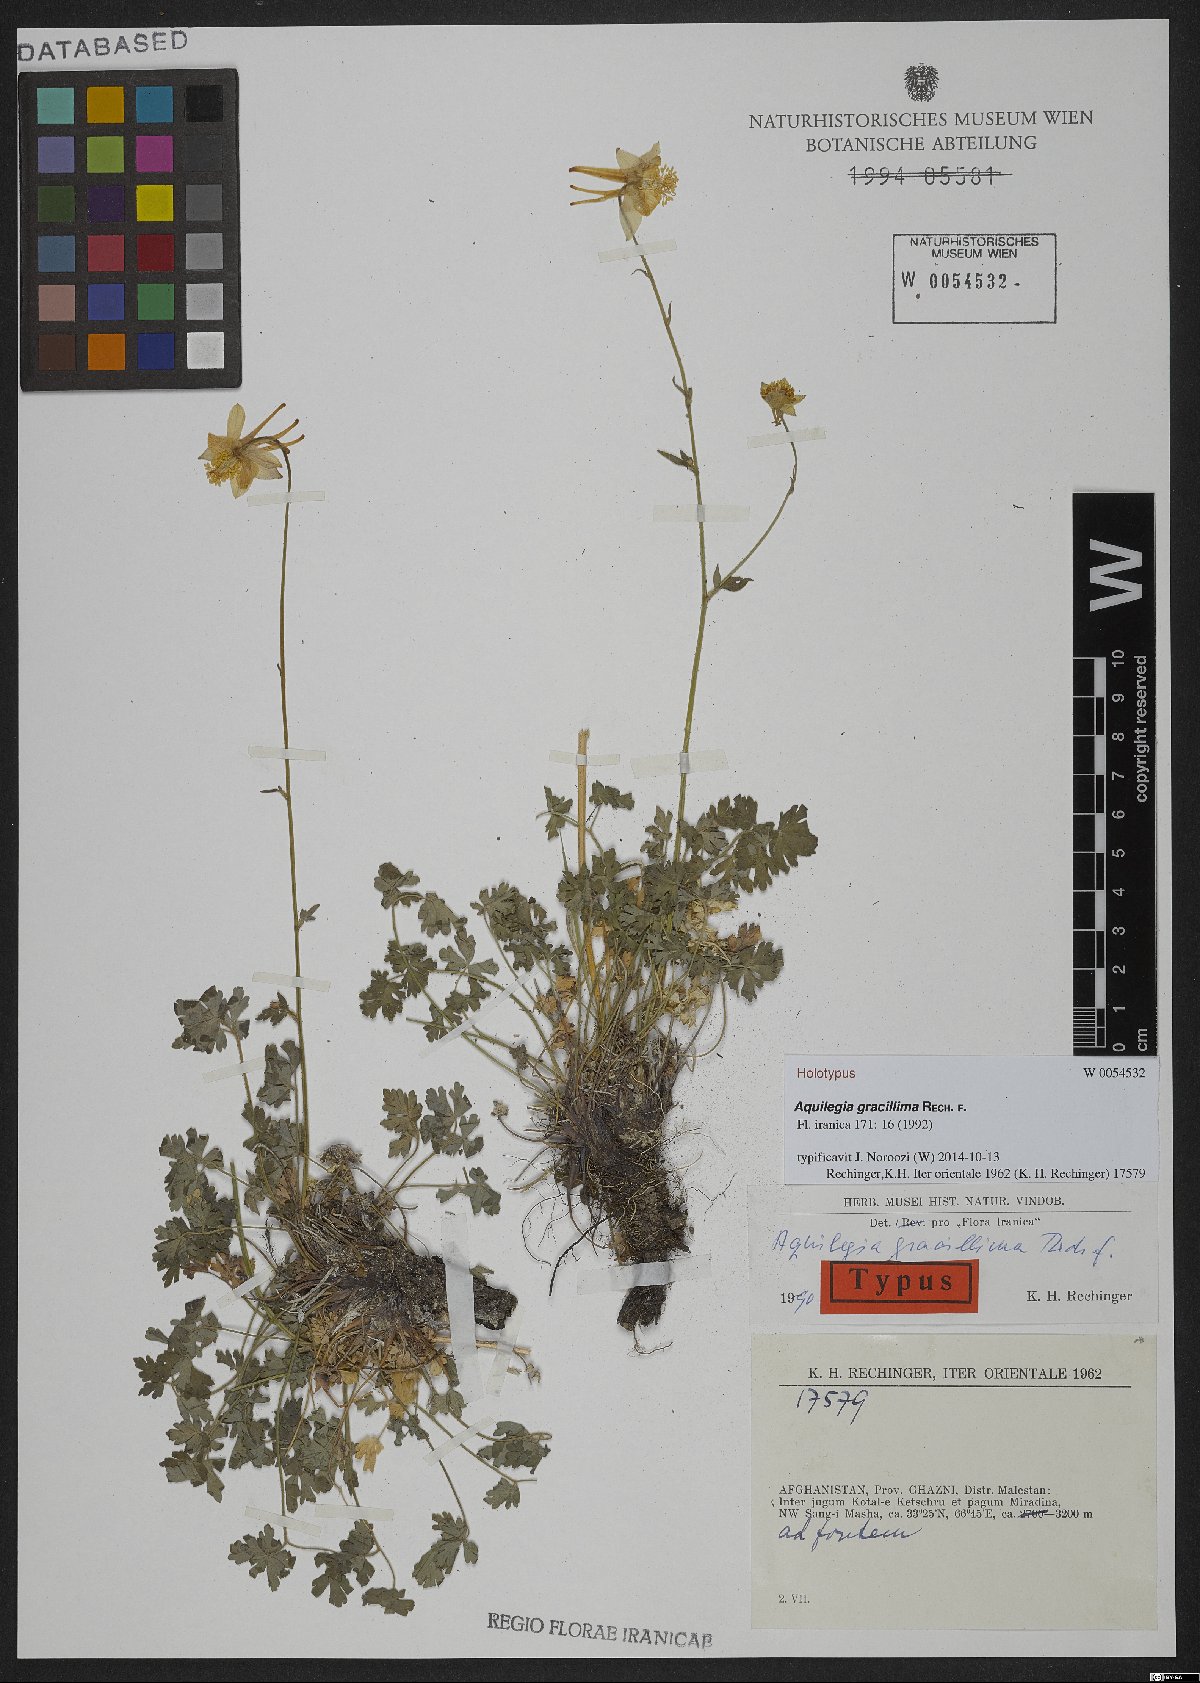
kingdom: Plantae
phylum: Tracheophyta
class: Magnoliopsida
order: Ranunculales
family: Ranunculaceae
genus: Aquilegia
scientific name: Aquilegia gracillima
